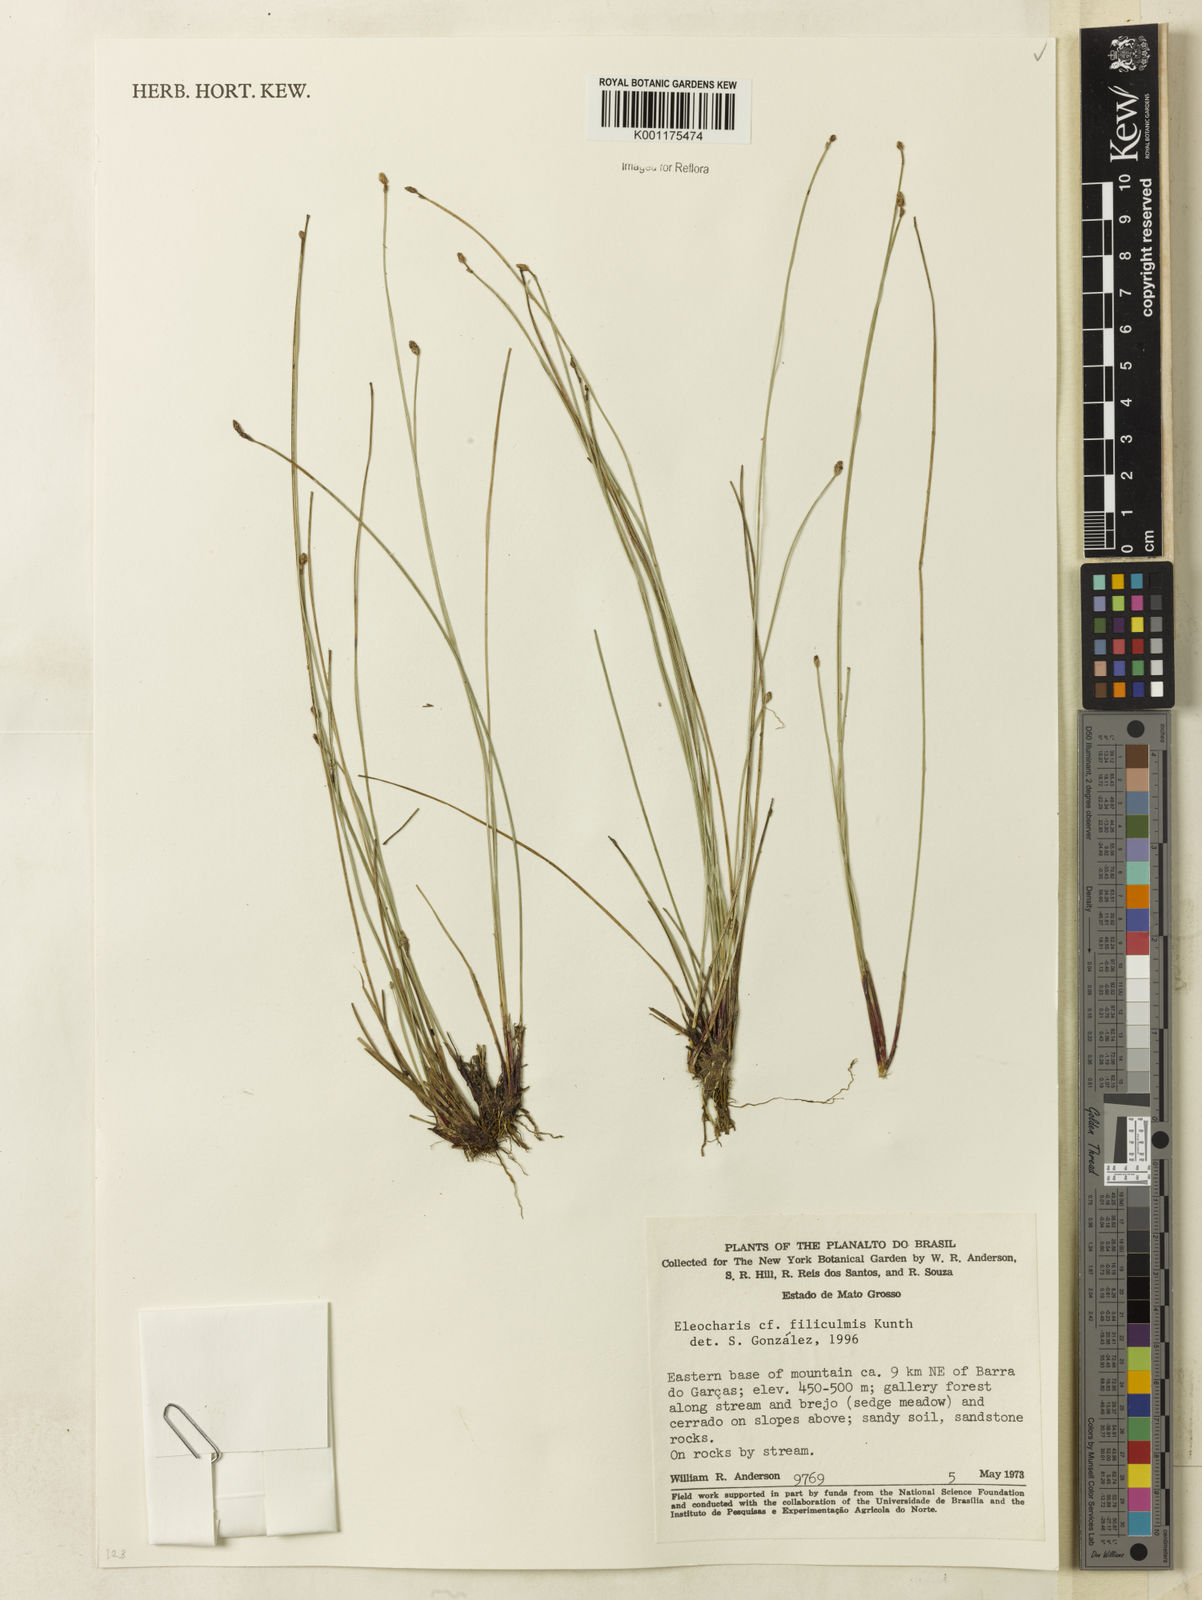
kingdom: Plantae
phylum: Tracheophyta
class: Liliopsida
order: Poales
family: Cyperaceae
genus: Eleocharis
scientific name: Eleocharis filiculmis
